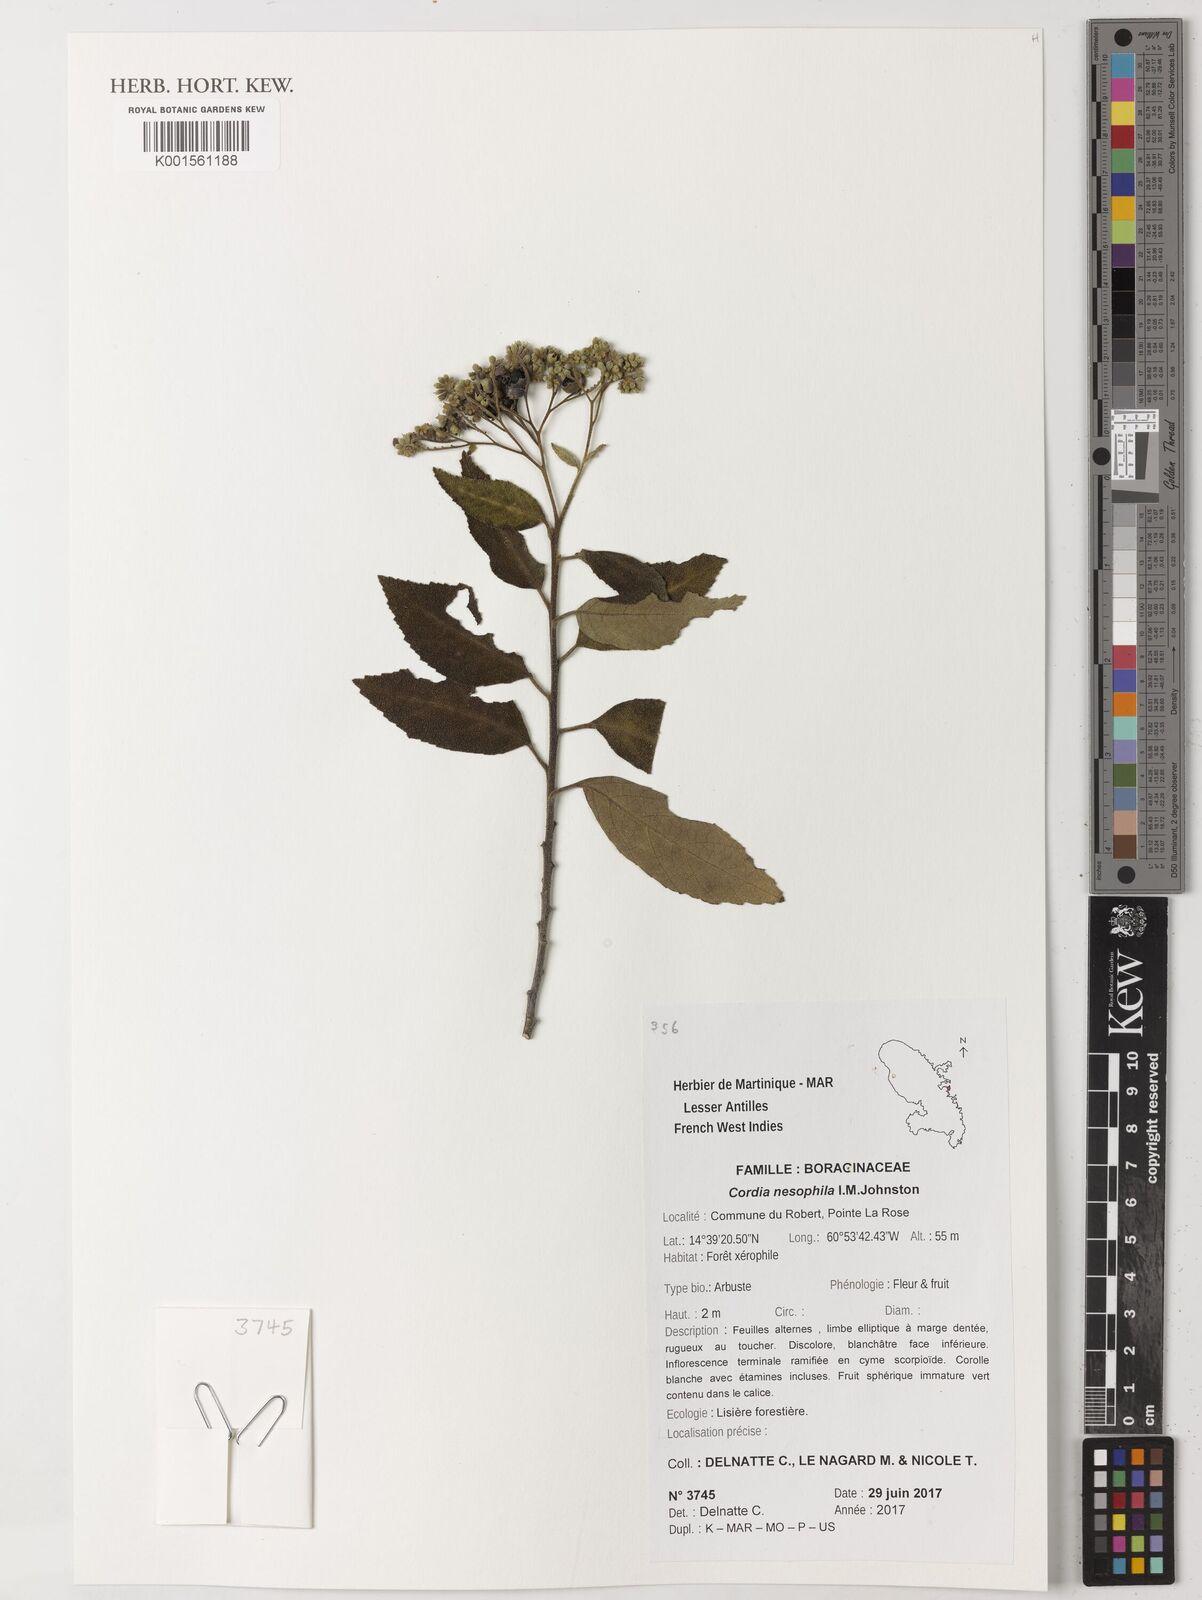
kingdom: Plantae
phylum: Tracheophyta
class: Magnoliopsida
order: Boraginales
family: Cordiaceae
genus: Varronia
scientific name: Varronia nesophila
